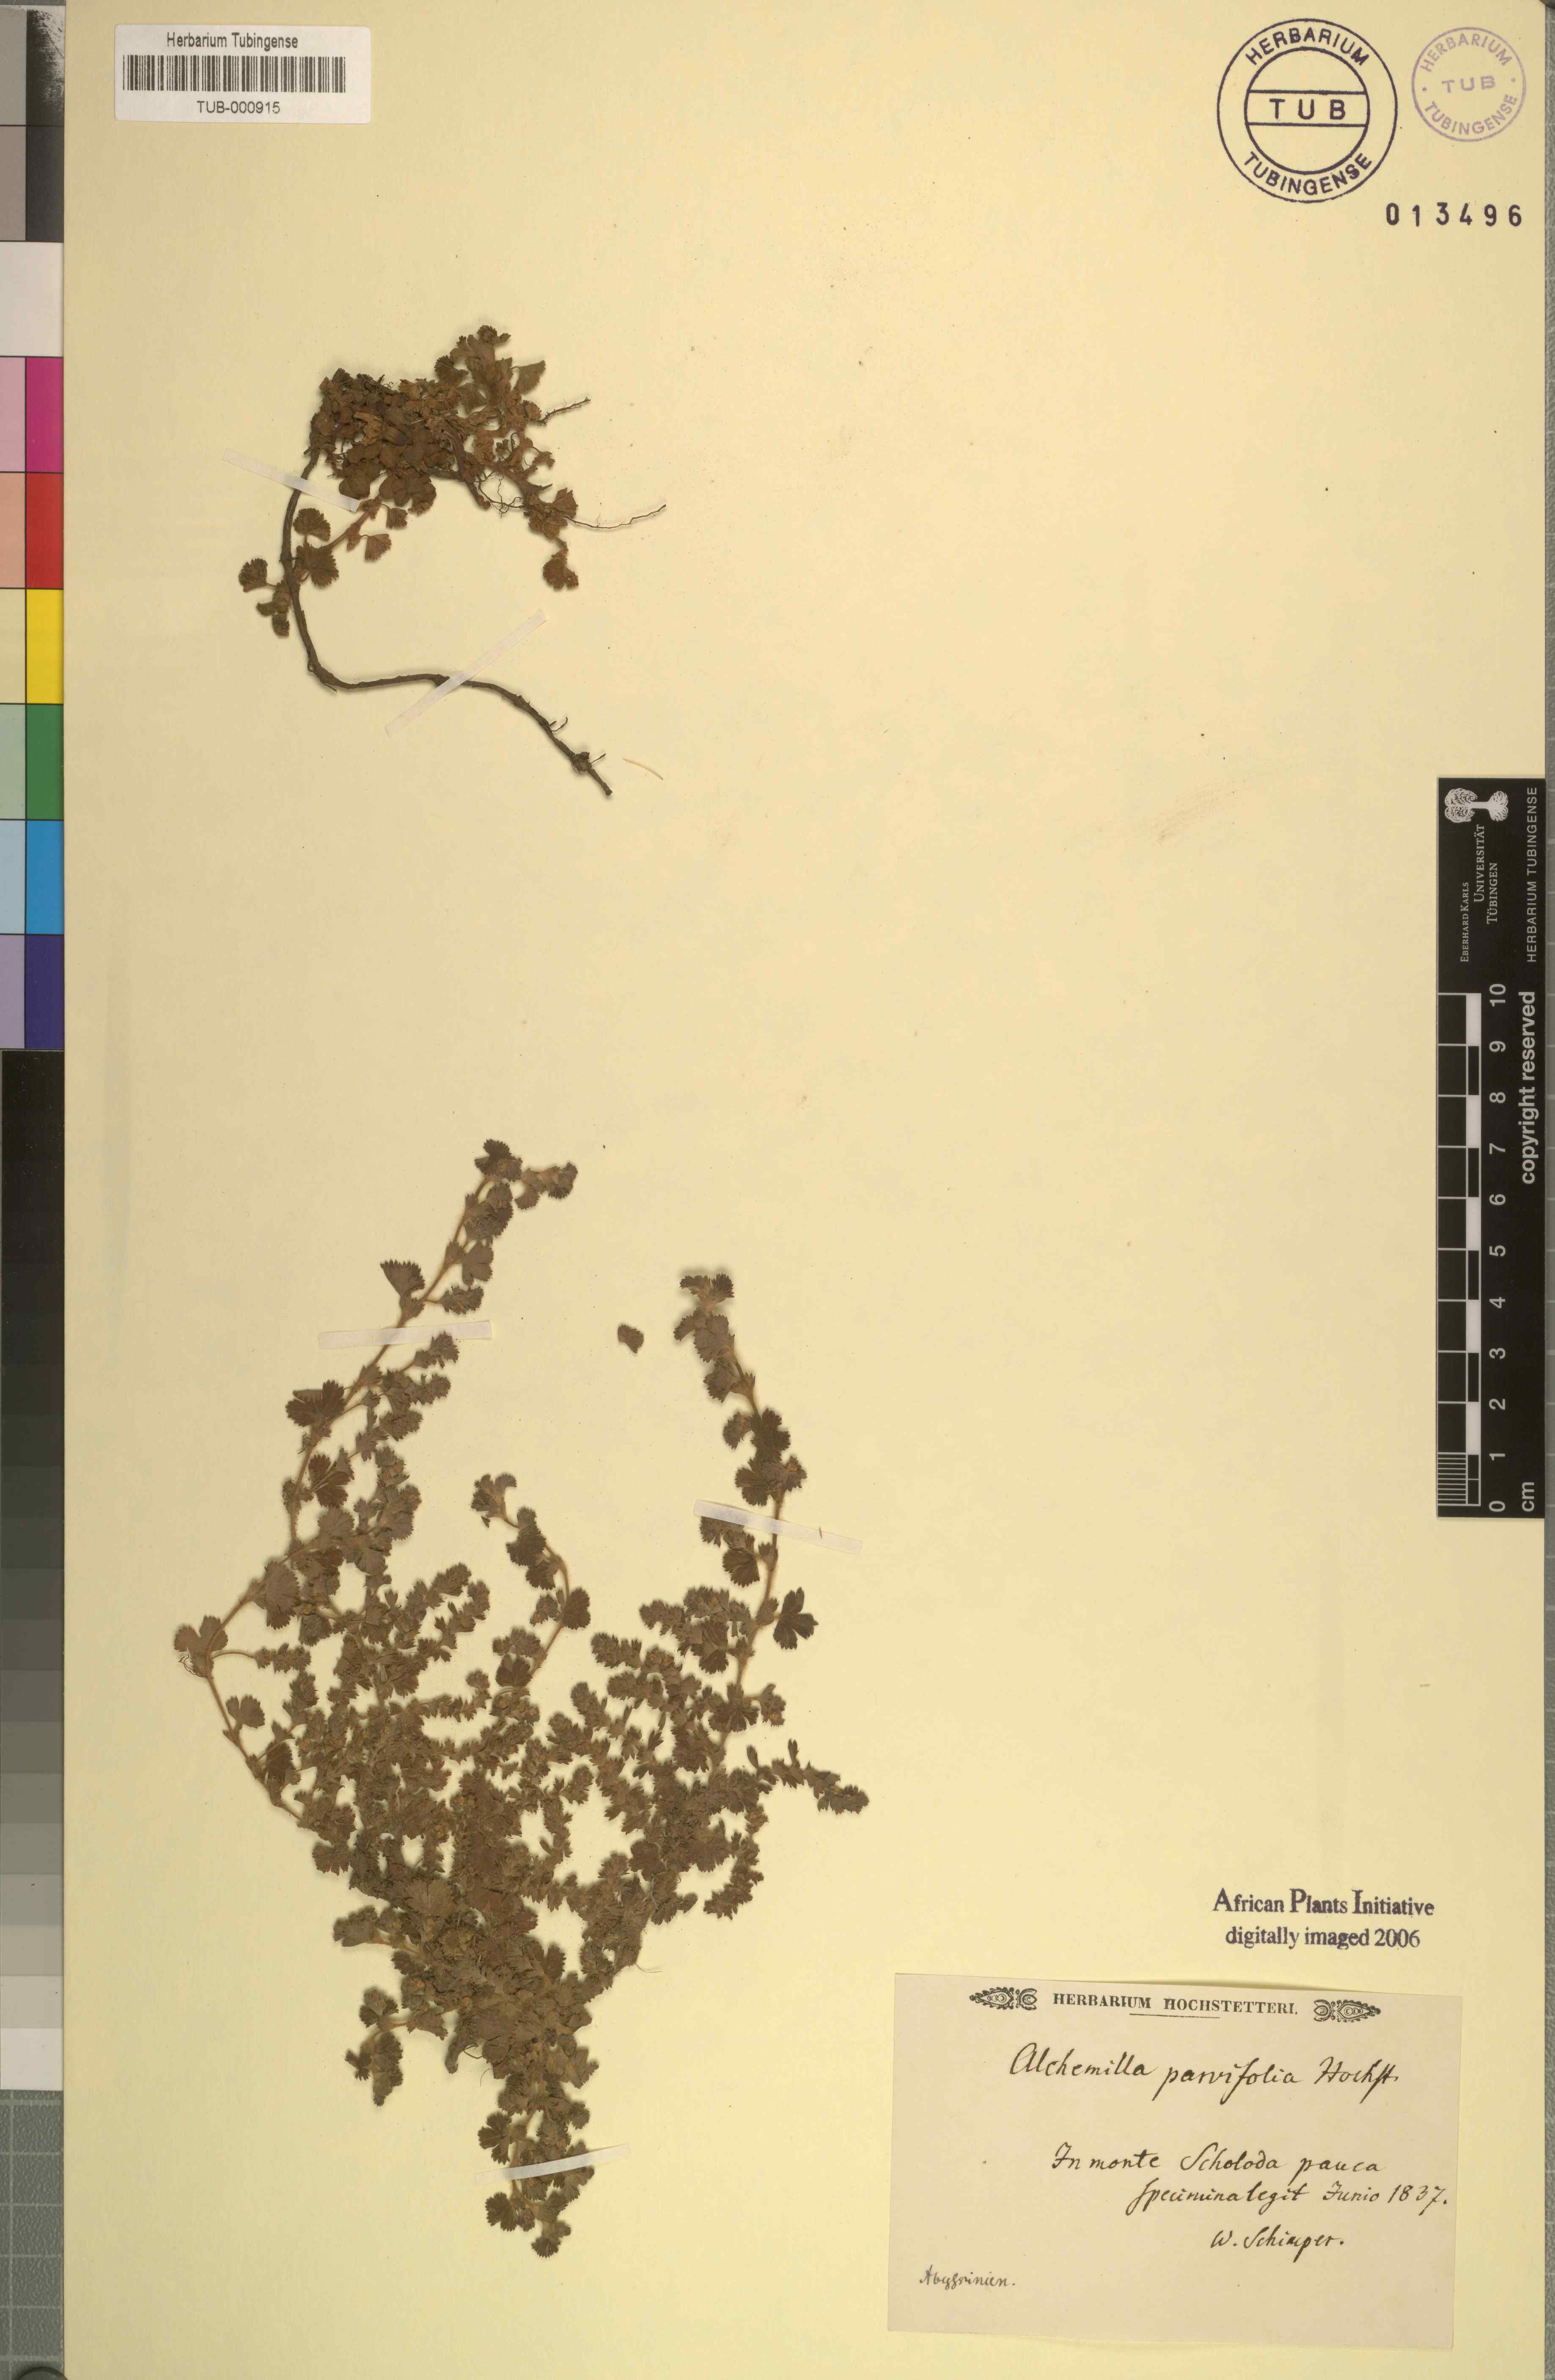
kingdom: Plantae
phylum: Tracheophyta
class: Magnoliopsida
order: Rosales
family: Rosaceae
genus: Alchemilla
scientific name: Alchemilla
